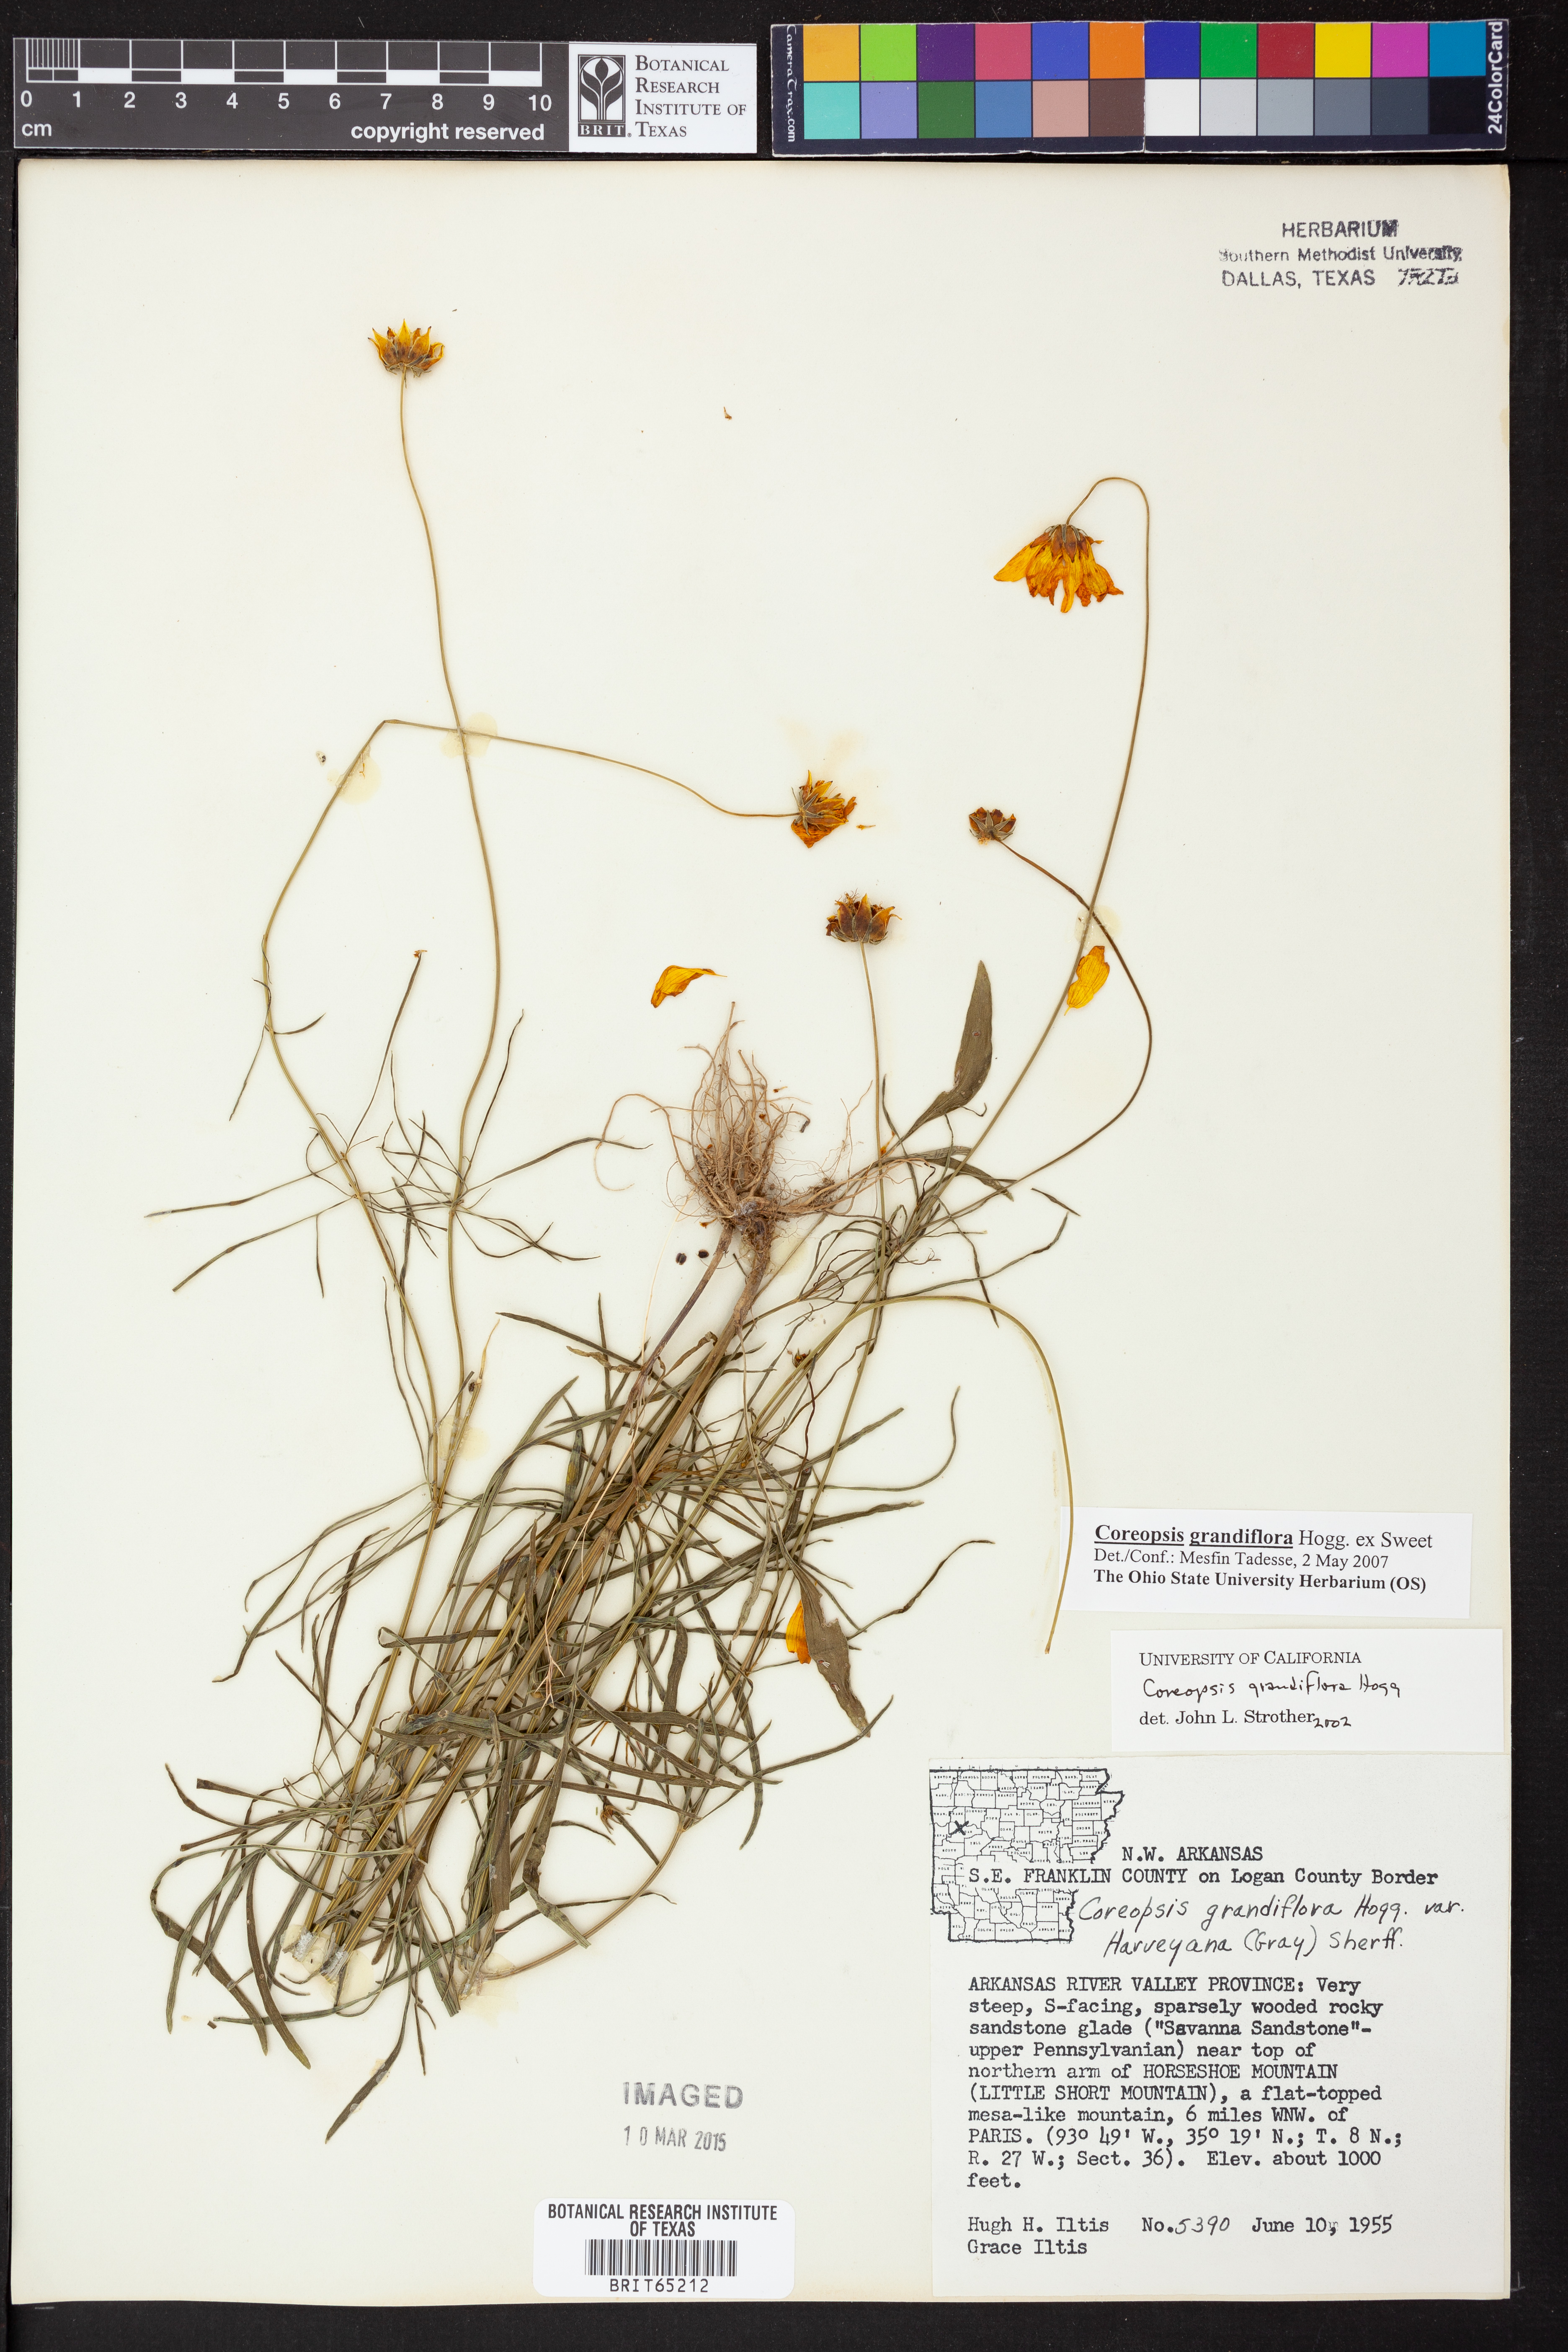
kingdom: Plantae
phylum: Tracheophyta
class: Magnoliopsida
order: Asterales
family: Asteraceae
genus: Coreopsis
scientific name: Coreopsis grandiflora
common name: Large-flowered tickseed
